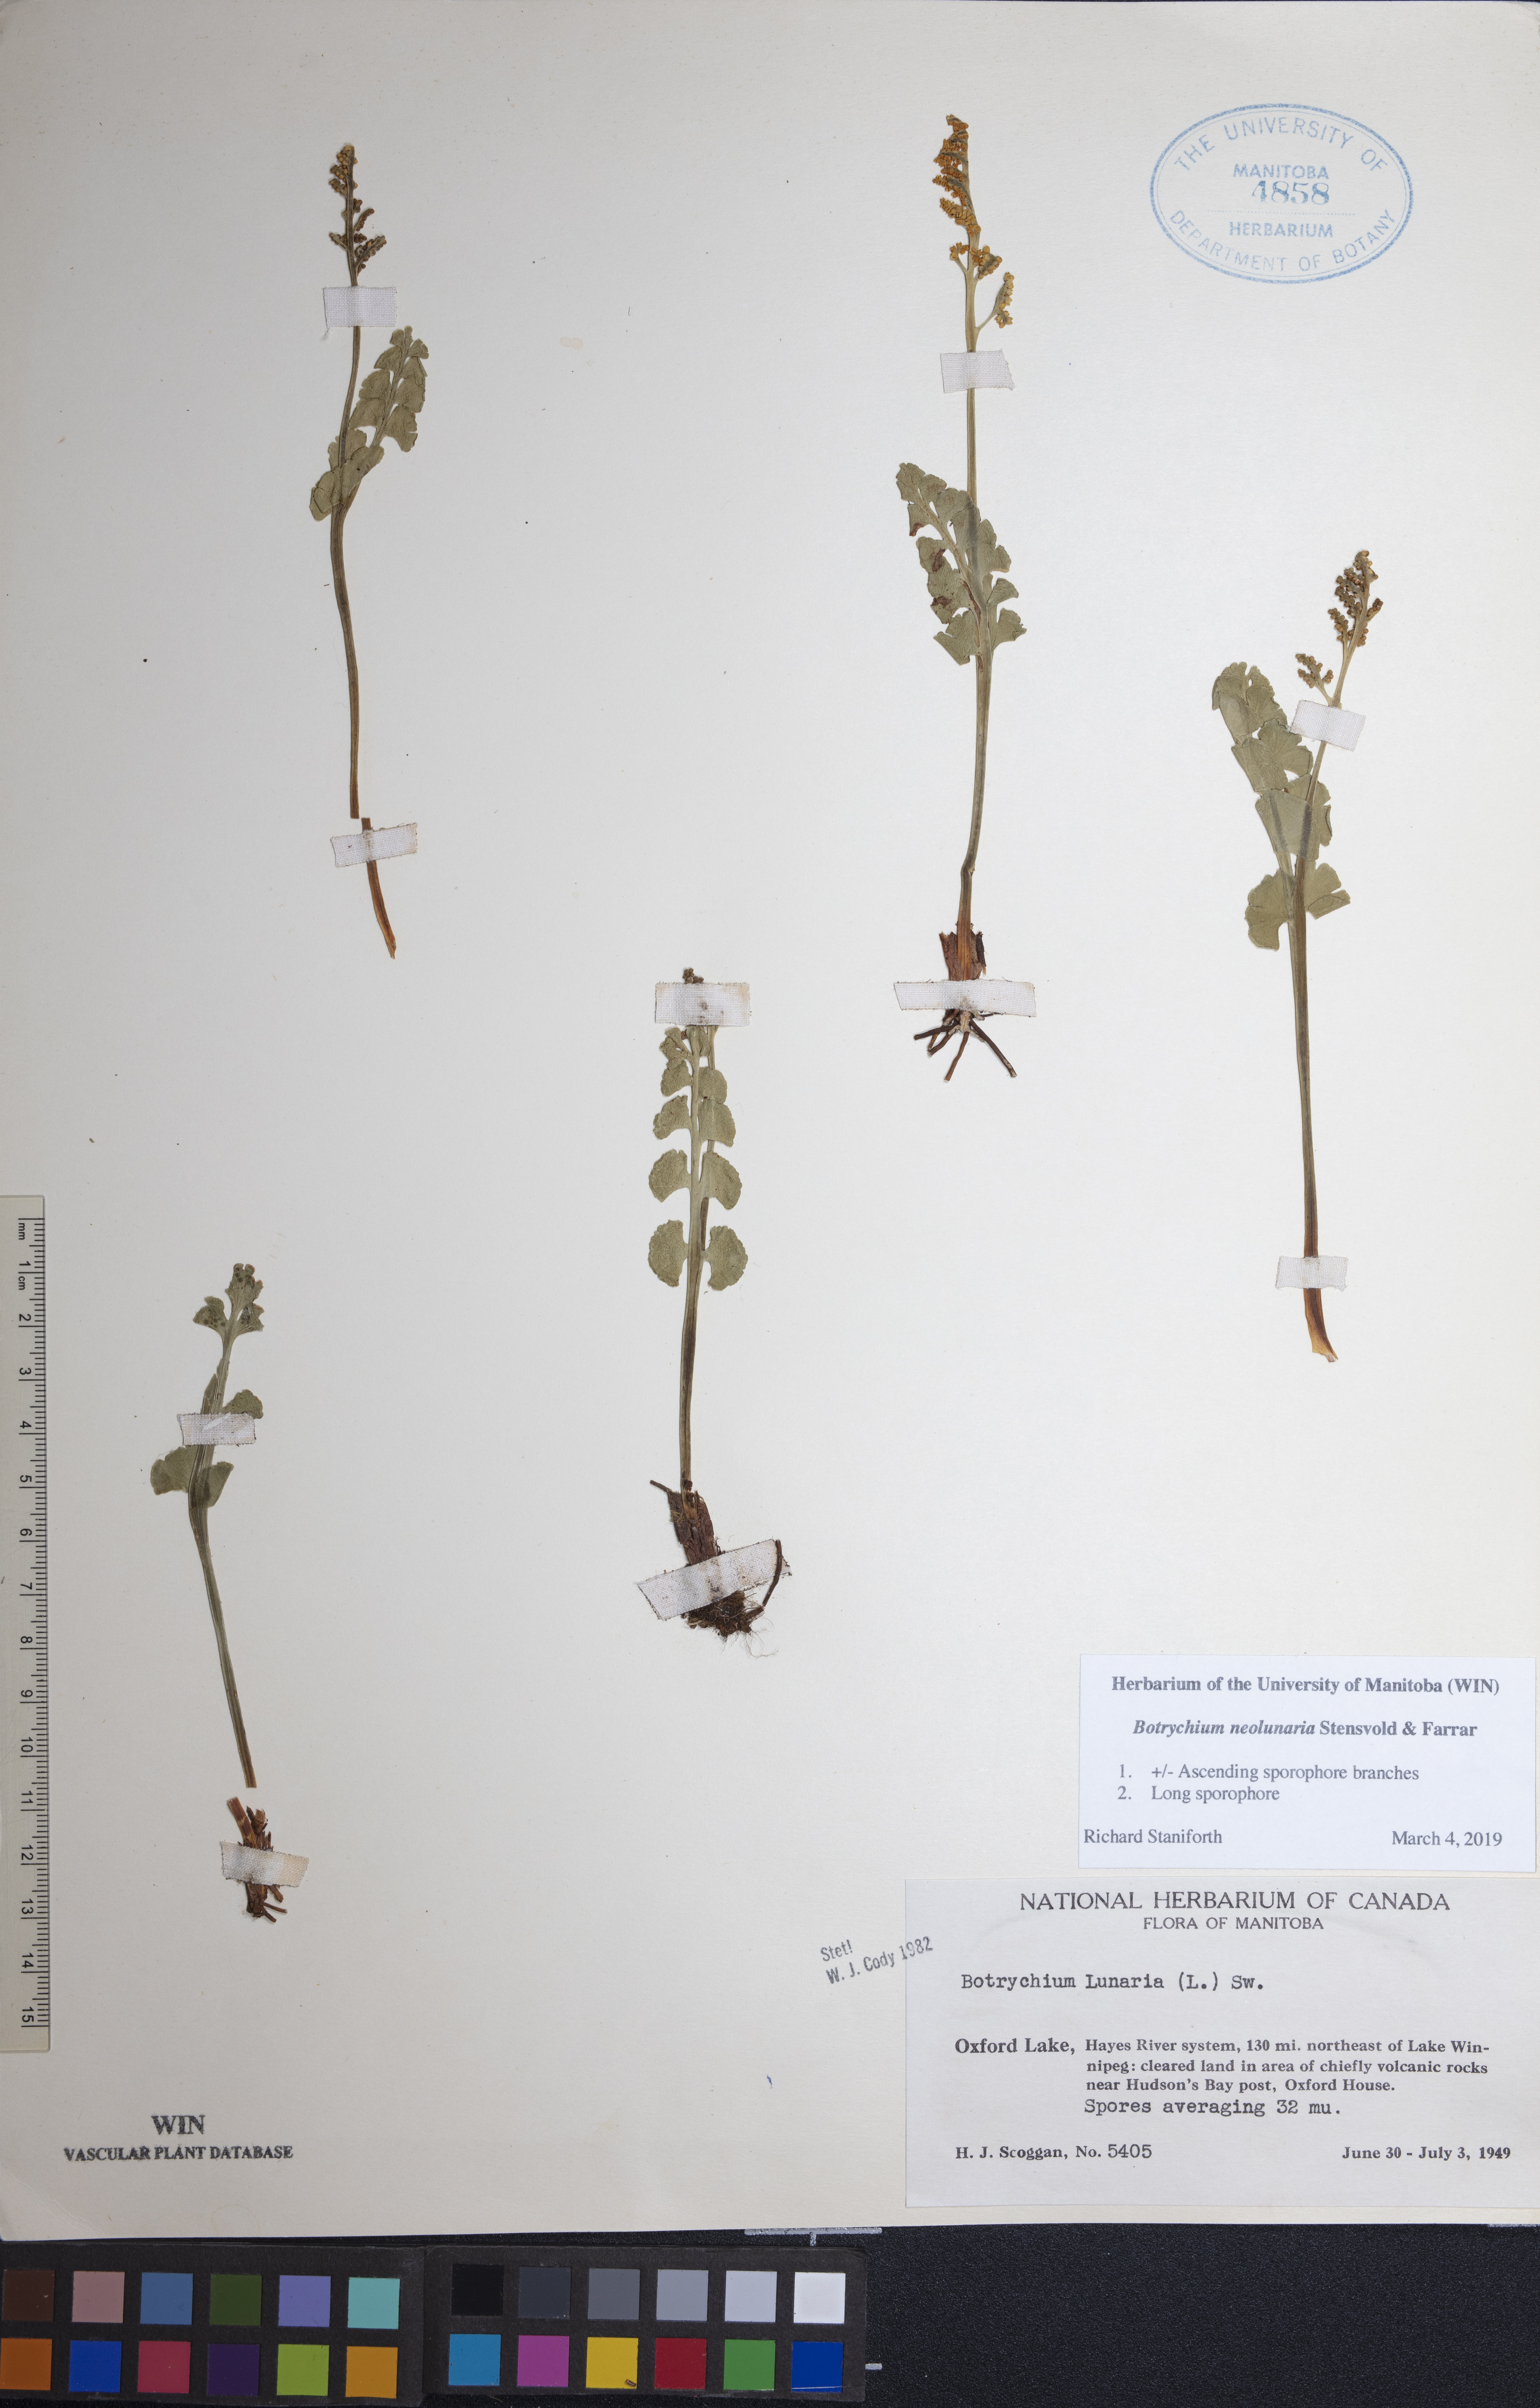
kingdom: Plantae
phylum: Tracheophyta
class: Polypodiopsida
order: Ophioglossales
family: Ophioglossaceae
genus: Botrychium
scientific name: Botrychium neolunaria
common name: New world moonwort
